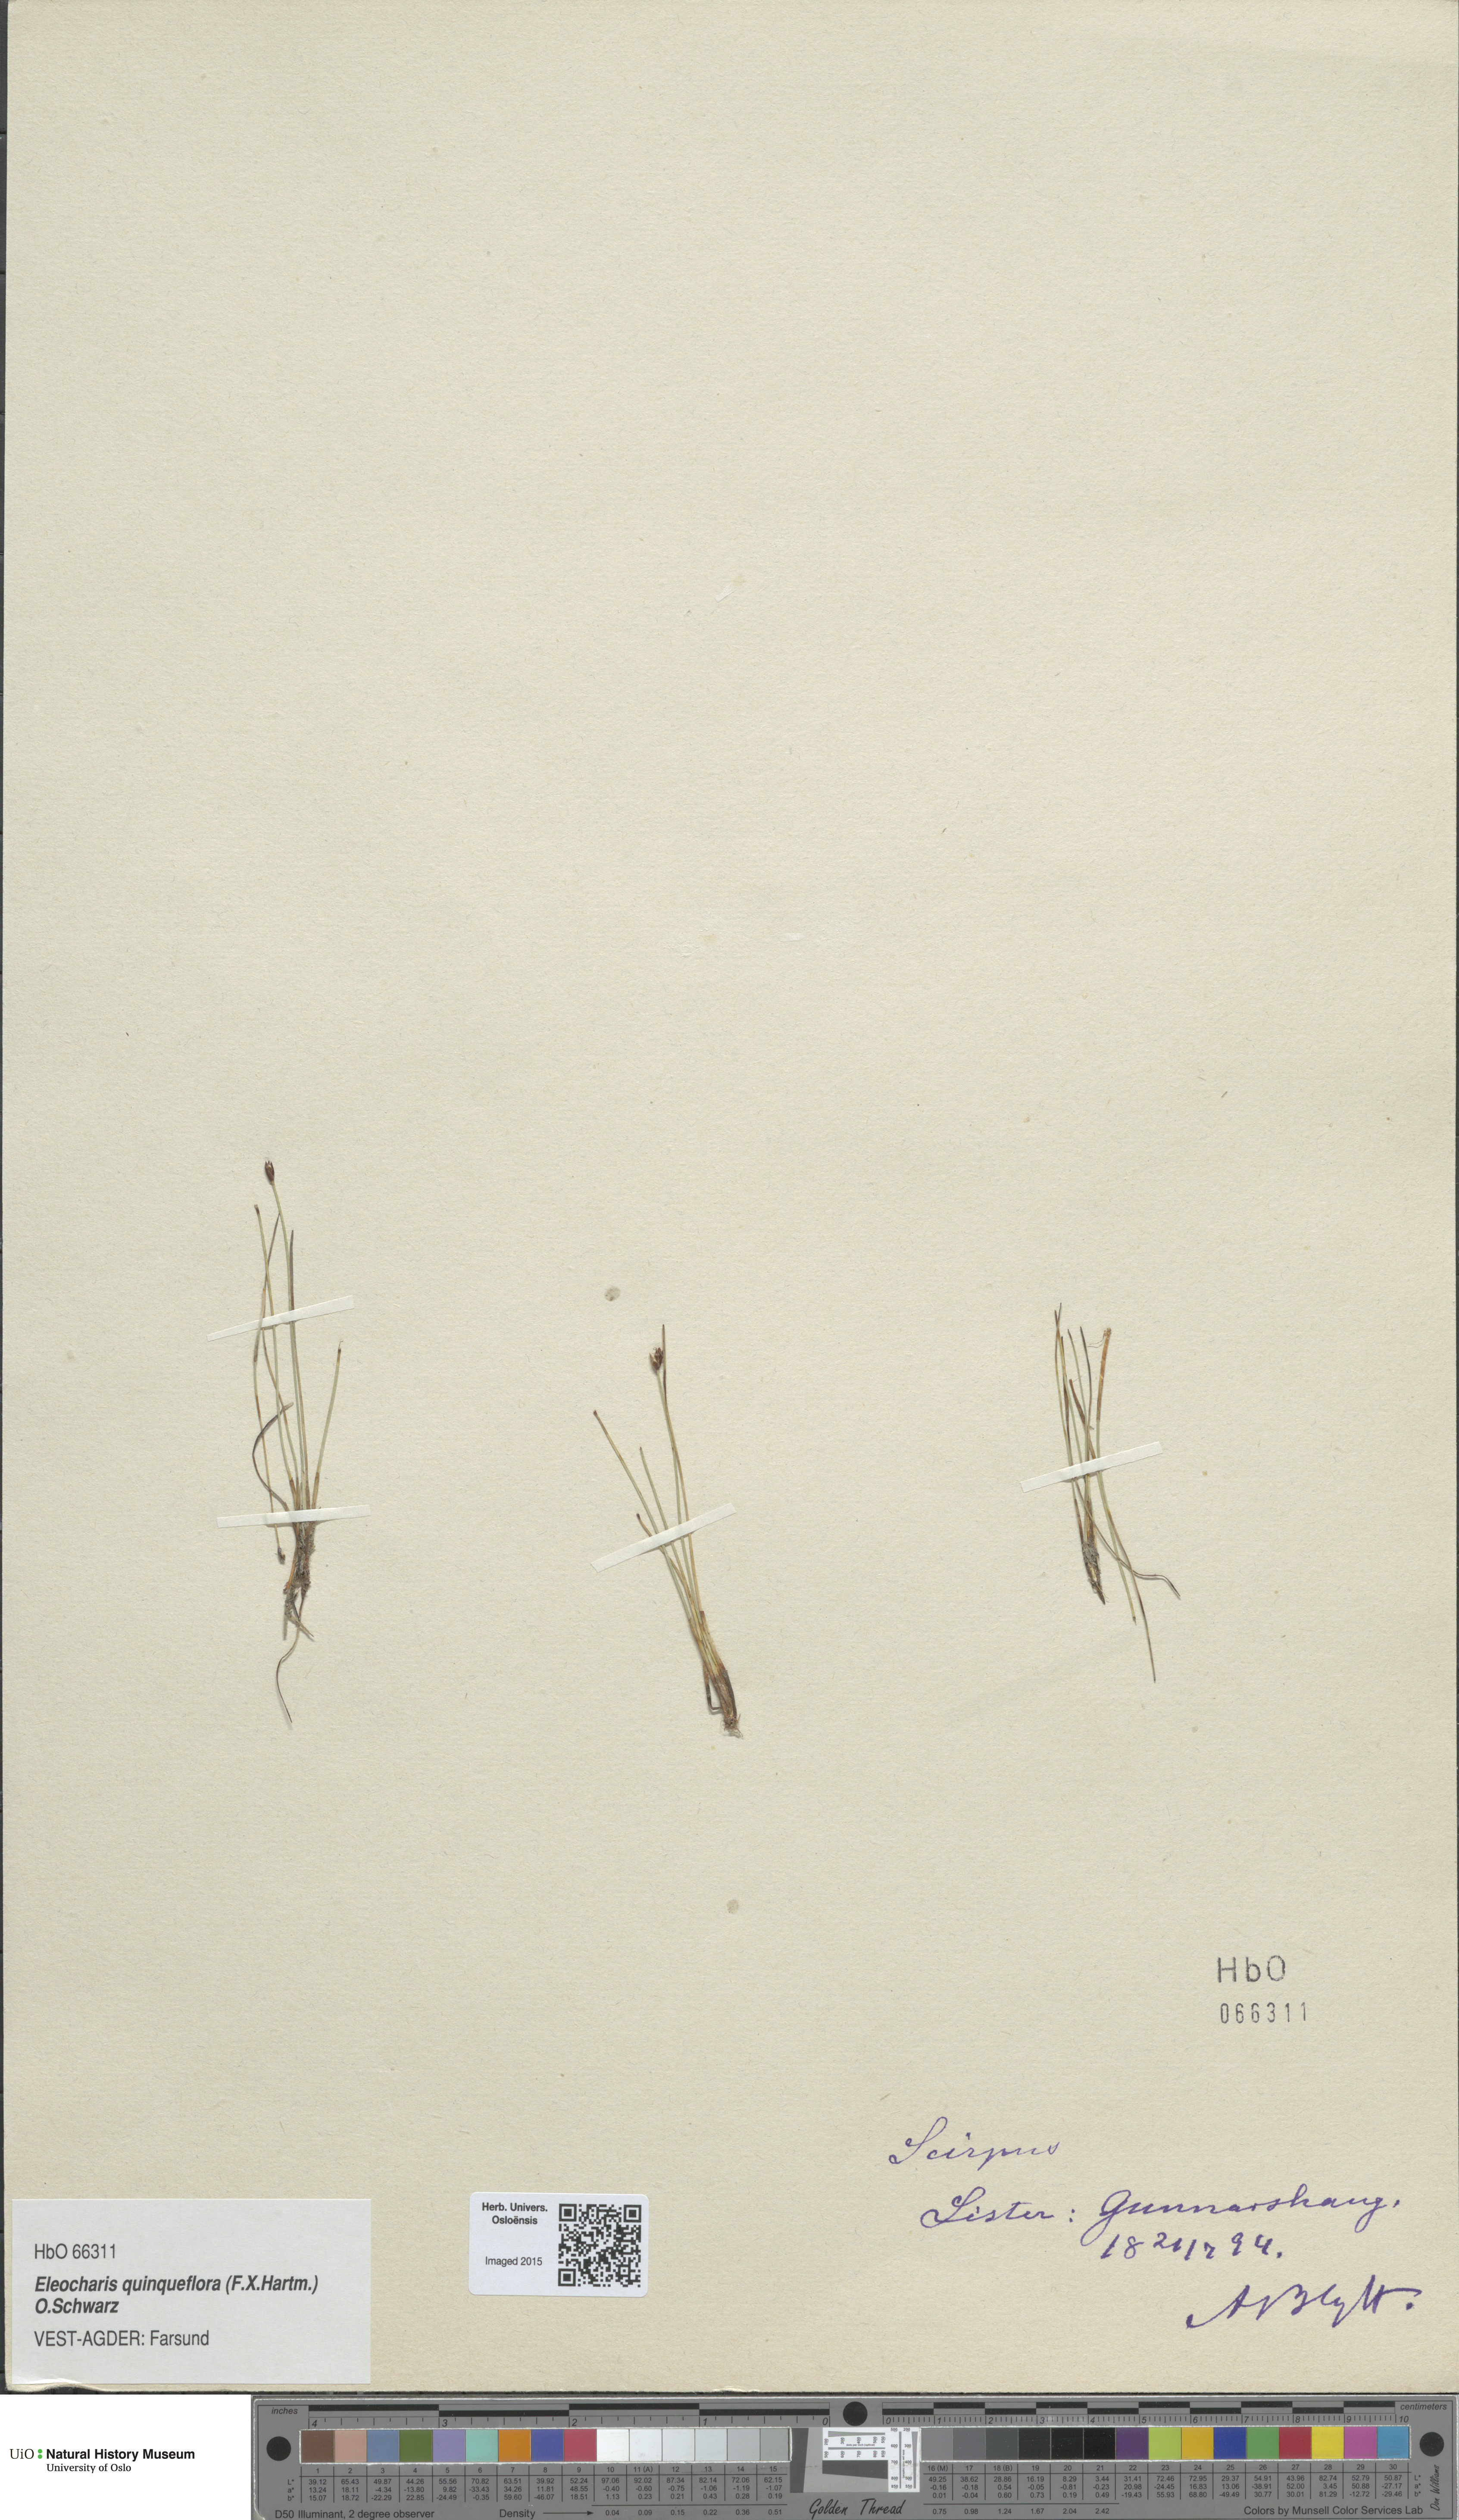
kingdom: Plantae
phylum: Tracheophyta
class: Liliopsida
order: Poales
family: Cyperaceae
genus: Eleocharis
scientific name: Eleocharis quinqueflora
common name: Few-flowered spike-rush
